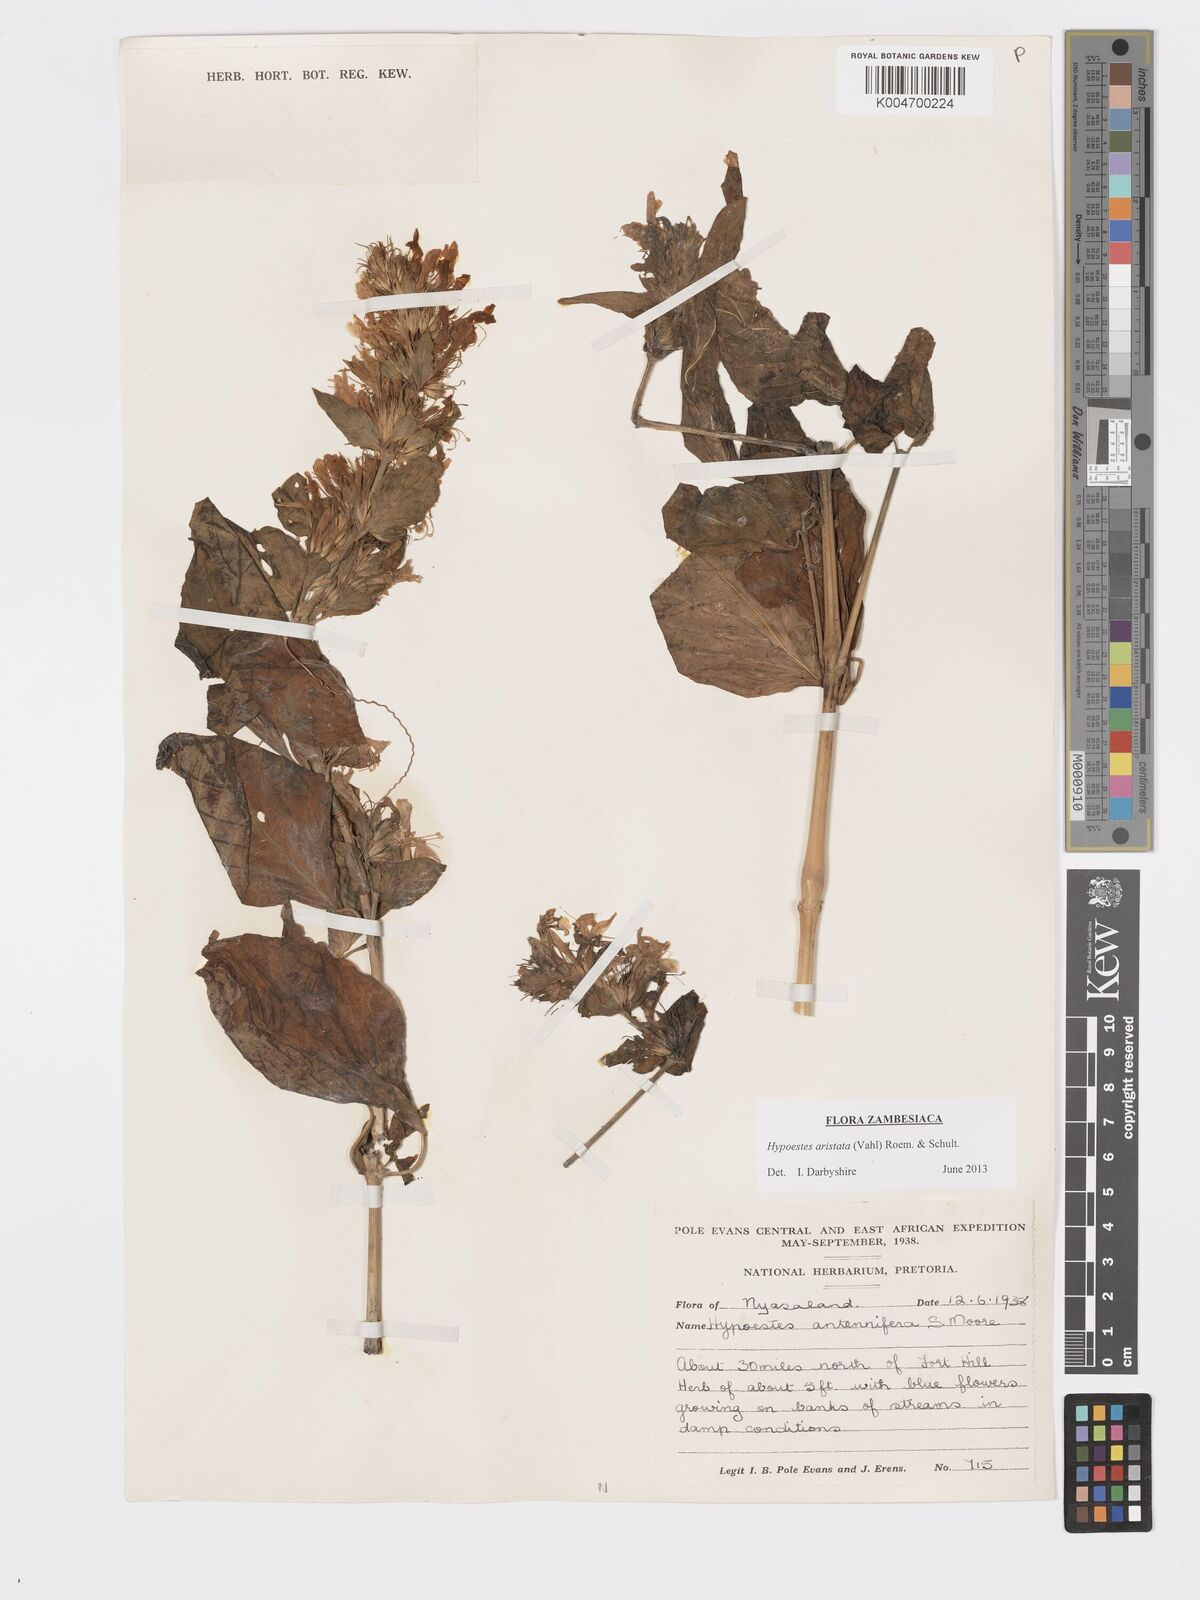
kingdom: Plantae
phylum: Tracheophyta
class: Magnoliopsida
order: Lamiales
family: Acanthaceae
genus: Hypoestes
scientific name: Hypoestes aristata
